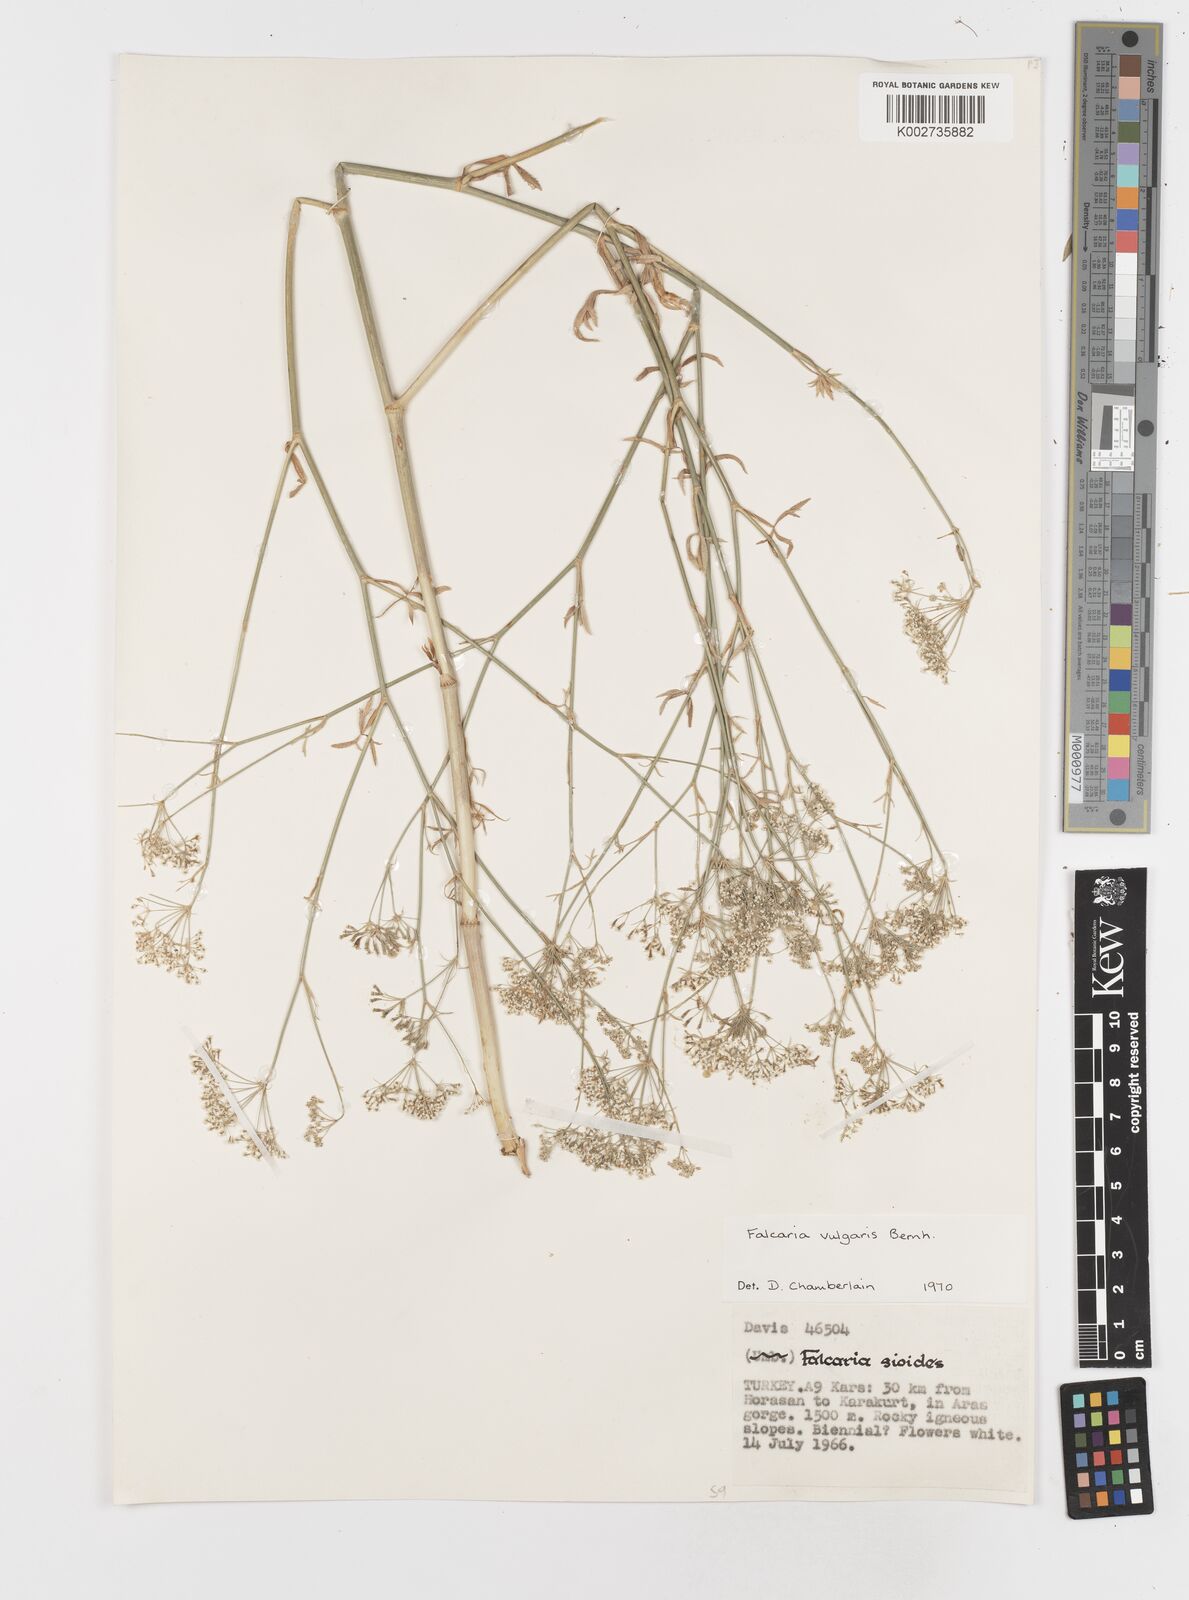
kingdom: Plantae
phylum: Tracheophyta
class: Magnoliopsida
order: Apiales
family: Apiaceae
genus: Falcaria
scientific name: Falcaria vulgaris
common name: Longleaf
